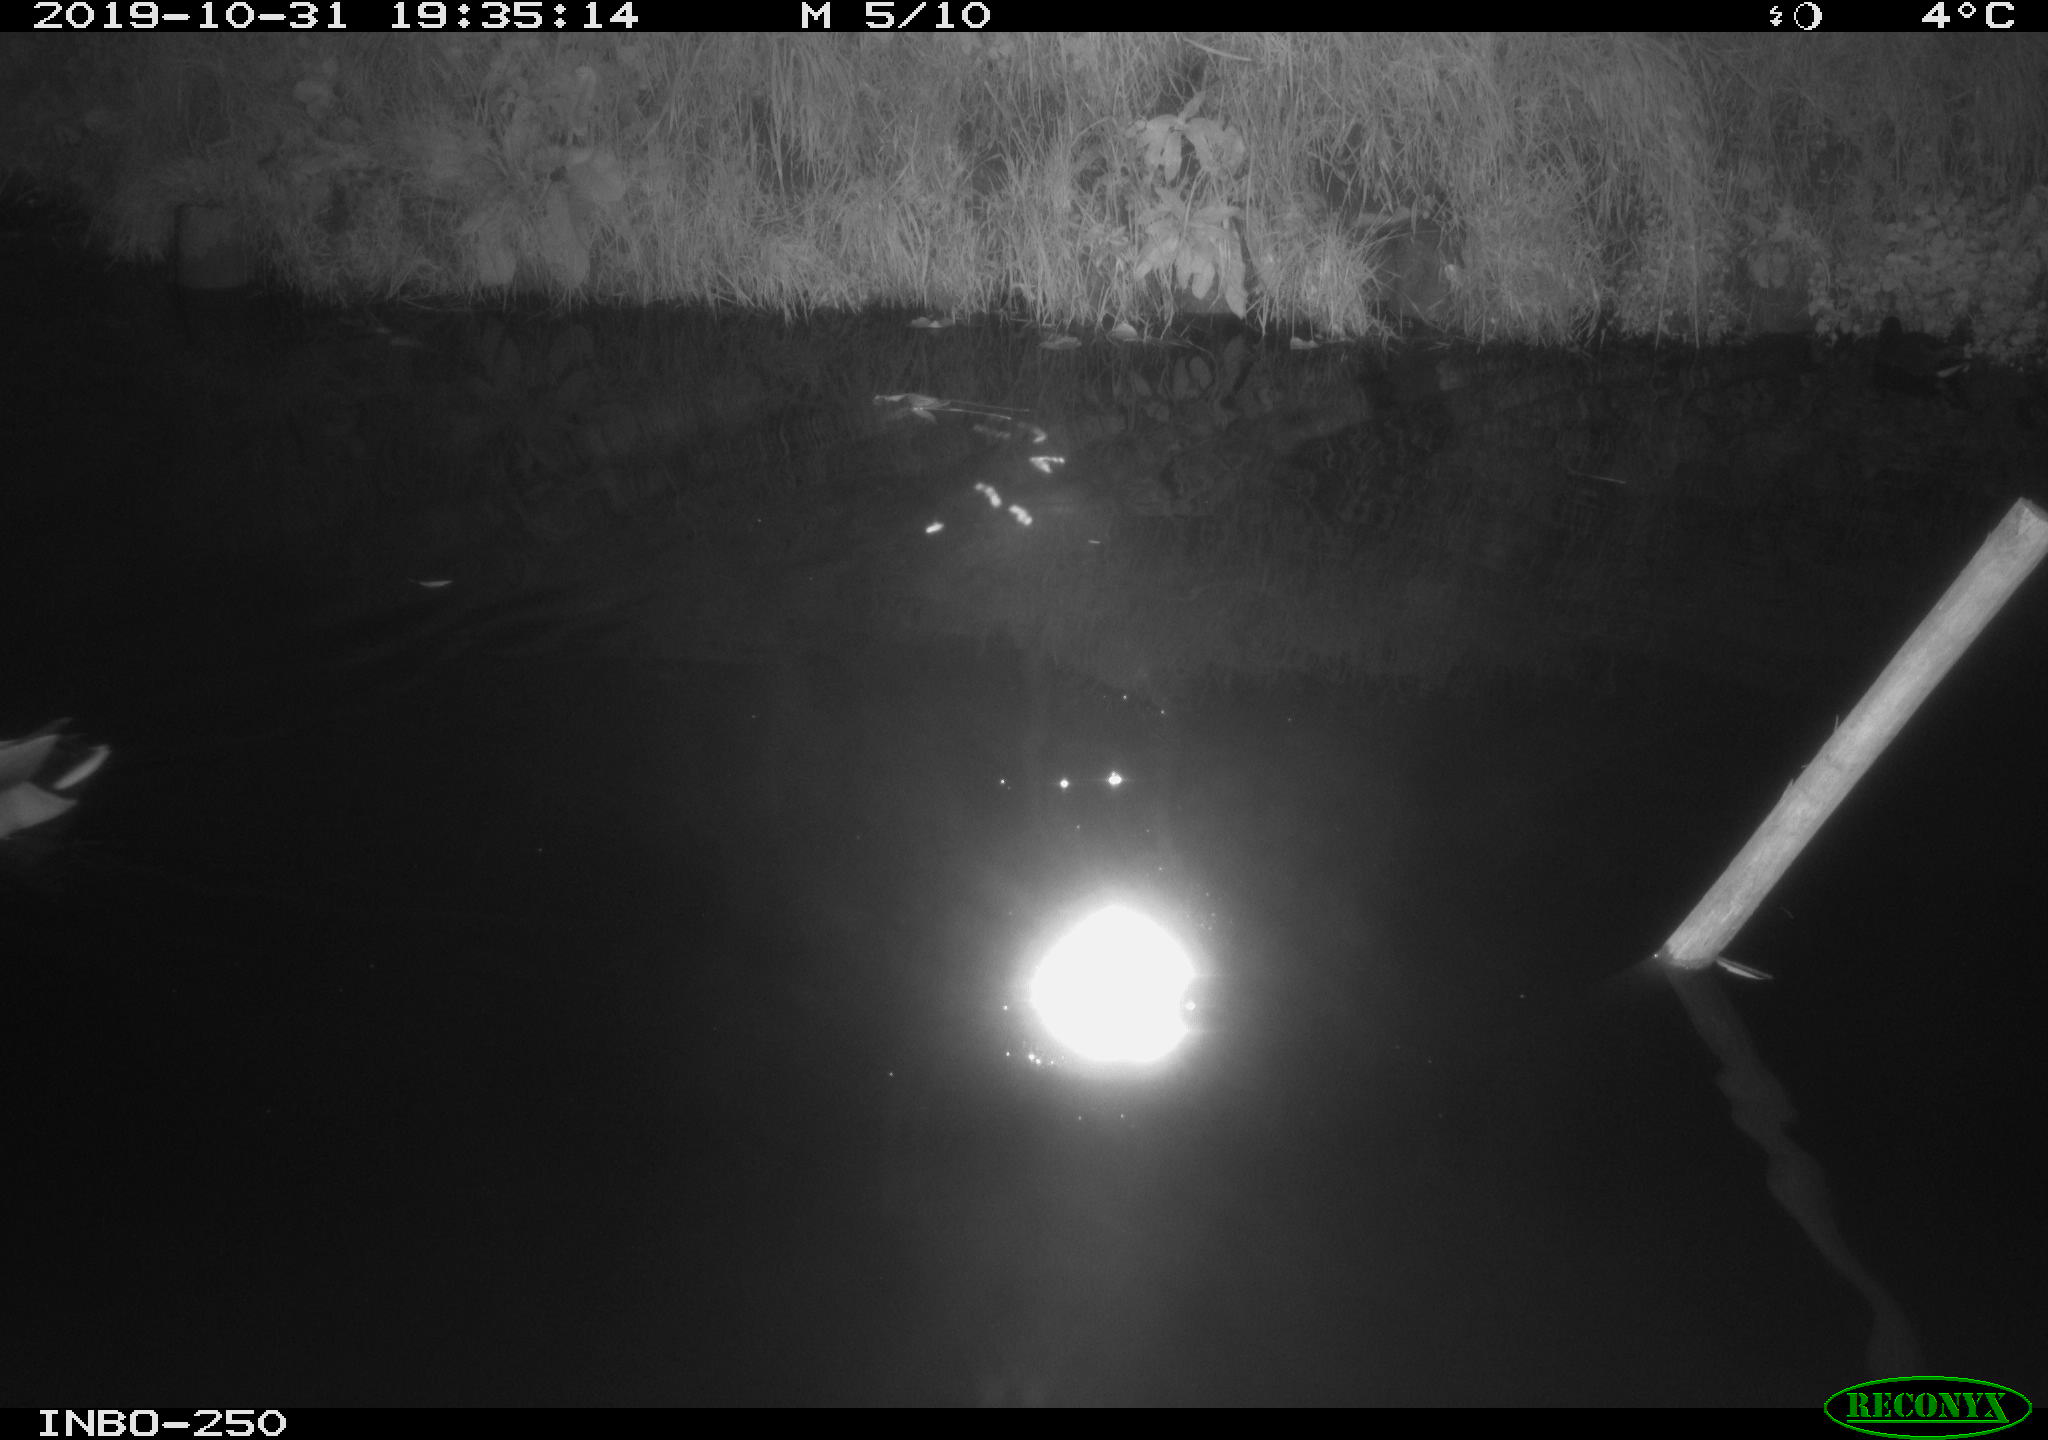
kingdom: Animalia
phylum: Chordata
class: Aves
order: Anseriformes
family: Anatidae
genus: Anas
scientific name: Anas platyrhynchos
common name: Mallard
